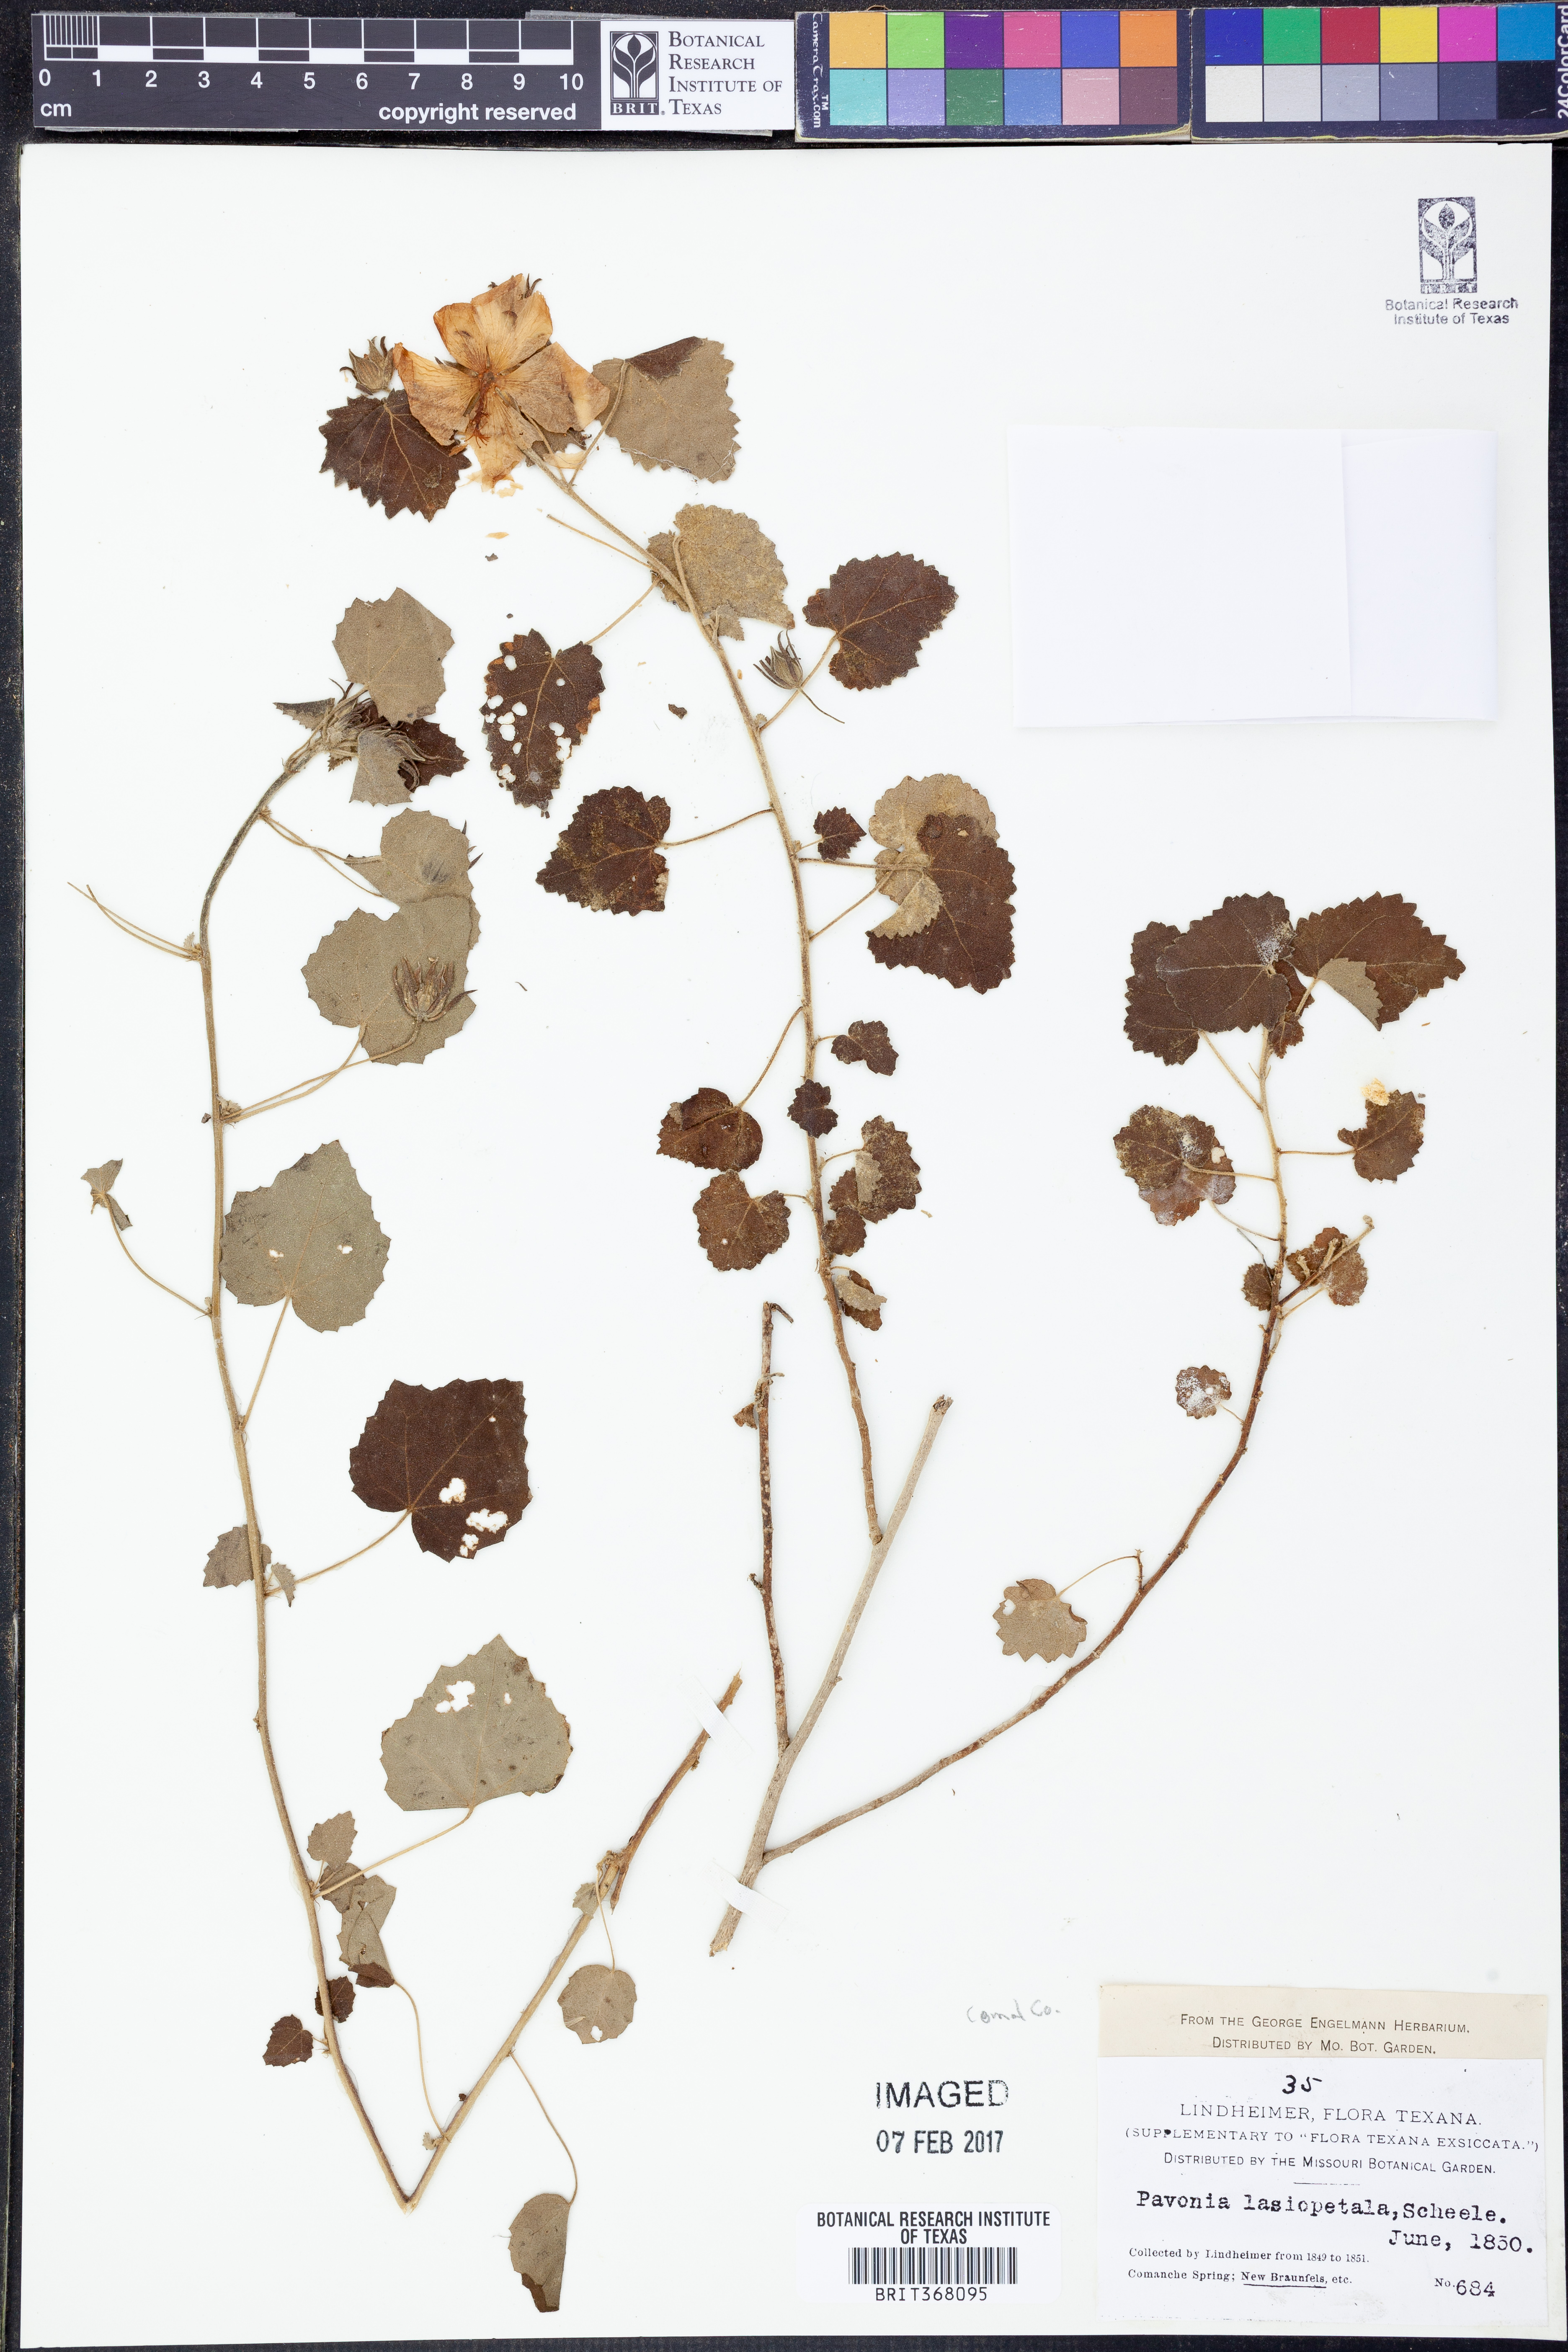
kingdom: Plantae
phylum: Tracheophyta
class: Magnoliopsida
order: Malvales
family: Malvaceae
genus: Pavonia
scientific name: Pavonia lasiopetala
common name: Texas swamp-mallow
